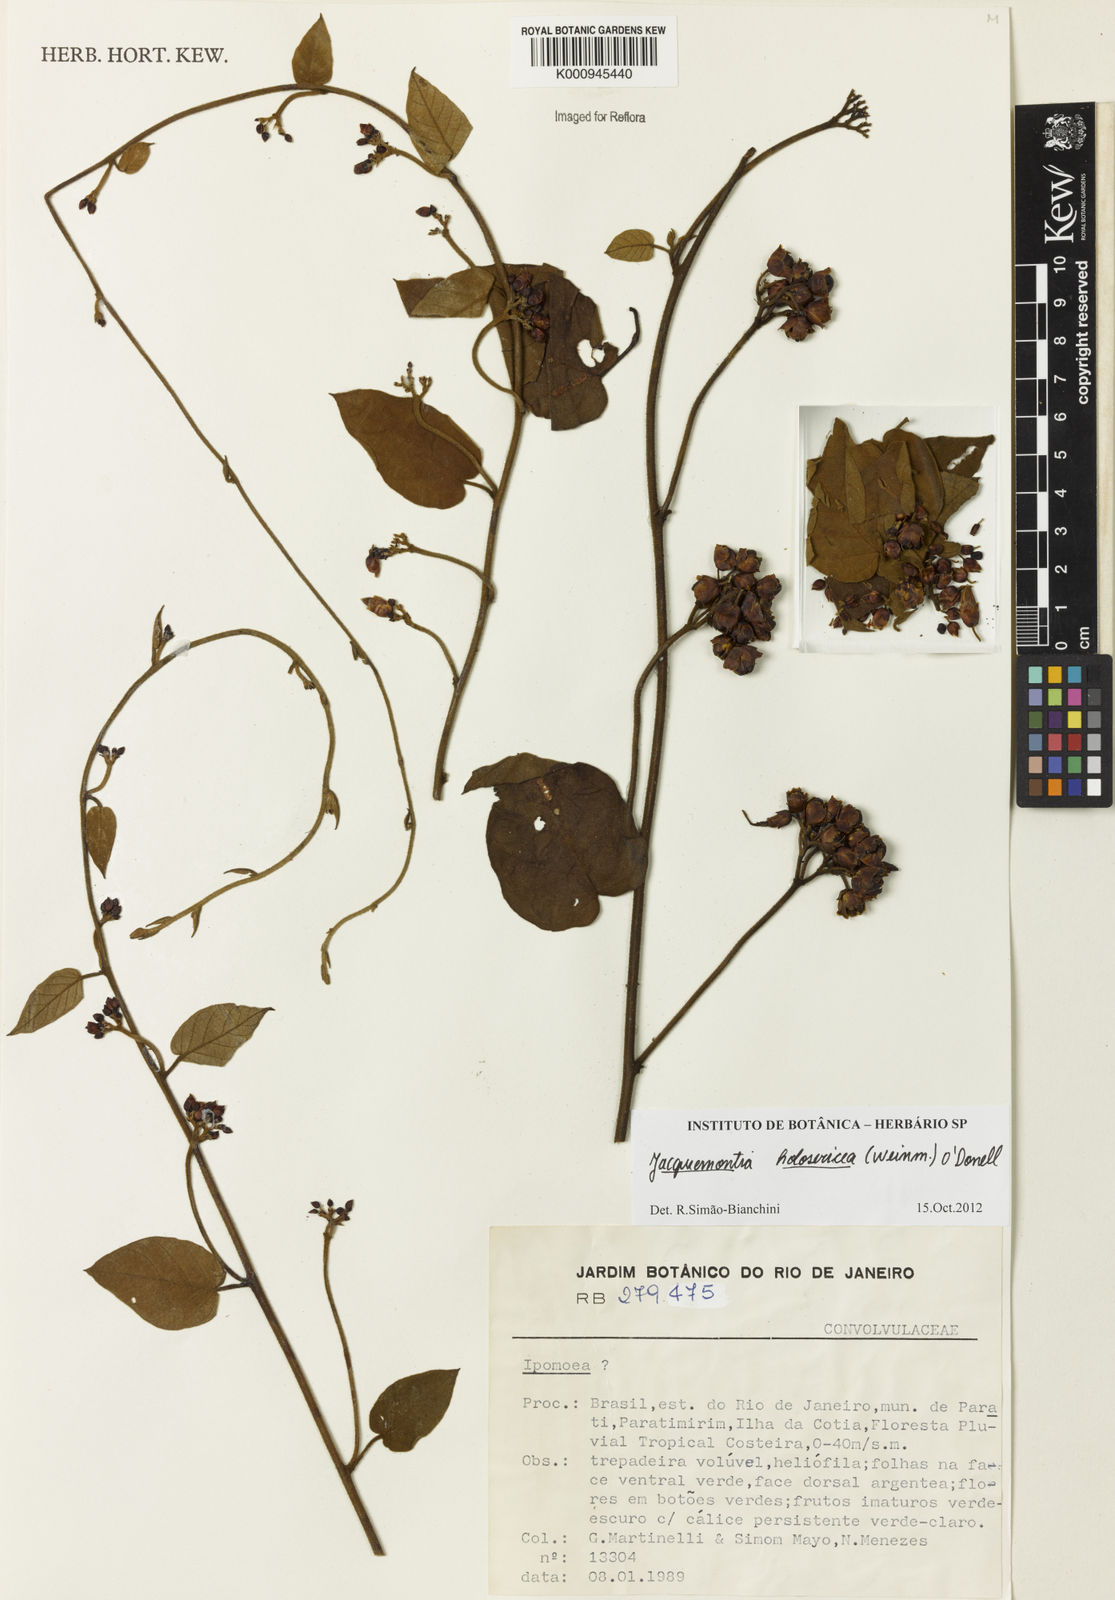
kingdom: Plantae
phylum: Tracheophyta
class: Magnoliopsida
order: Solanales
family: Convolvulaceae
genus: Jacquemontia
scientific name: Jacquemontia
